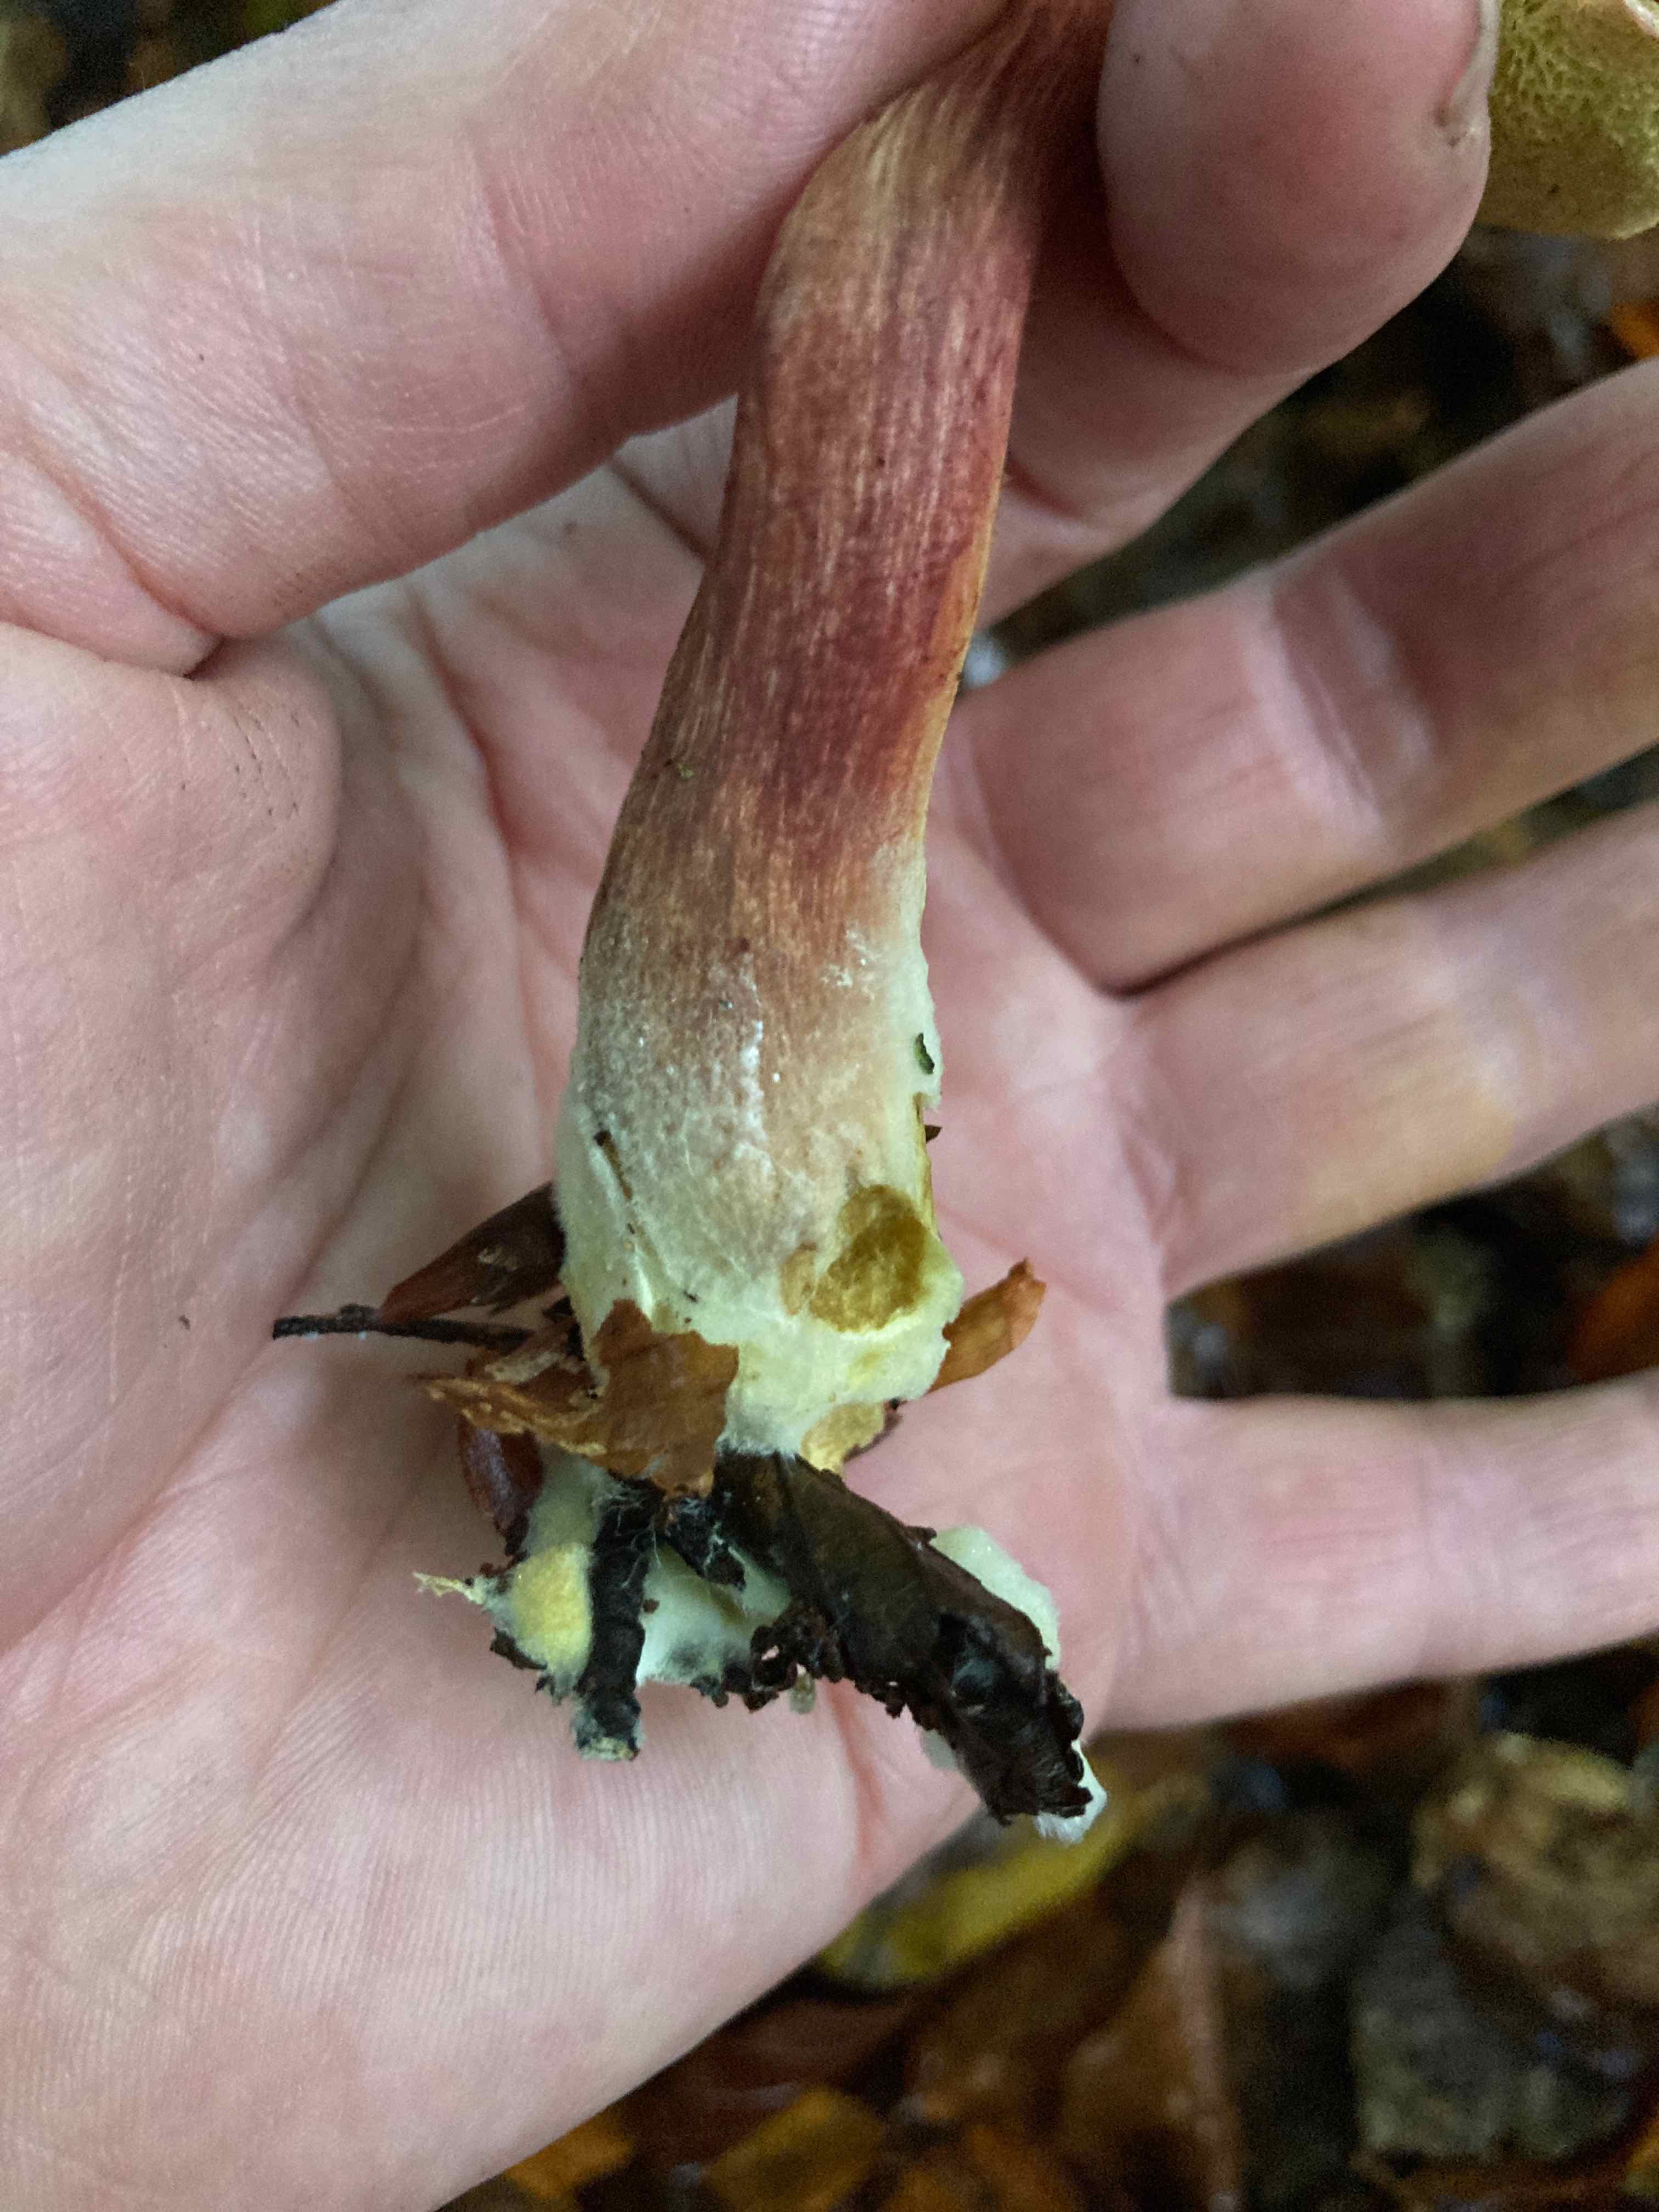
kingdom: Fungi
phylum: Basidiomycota
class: Agaricomycetes
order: Boletales
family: Boletaceae
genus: Xerocomellus
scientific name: Xerocomellus pruinatus
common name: dugget rørhat
